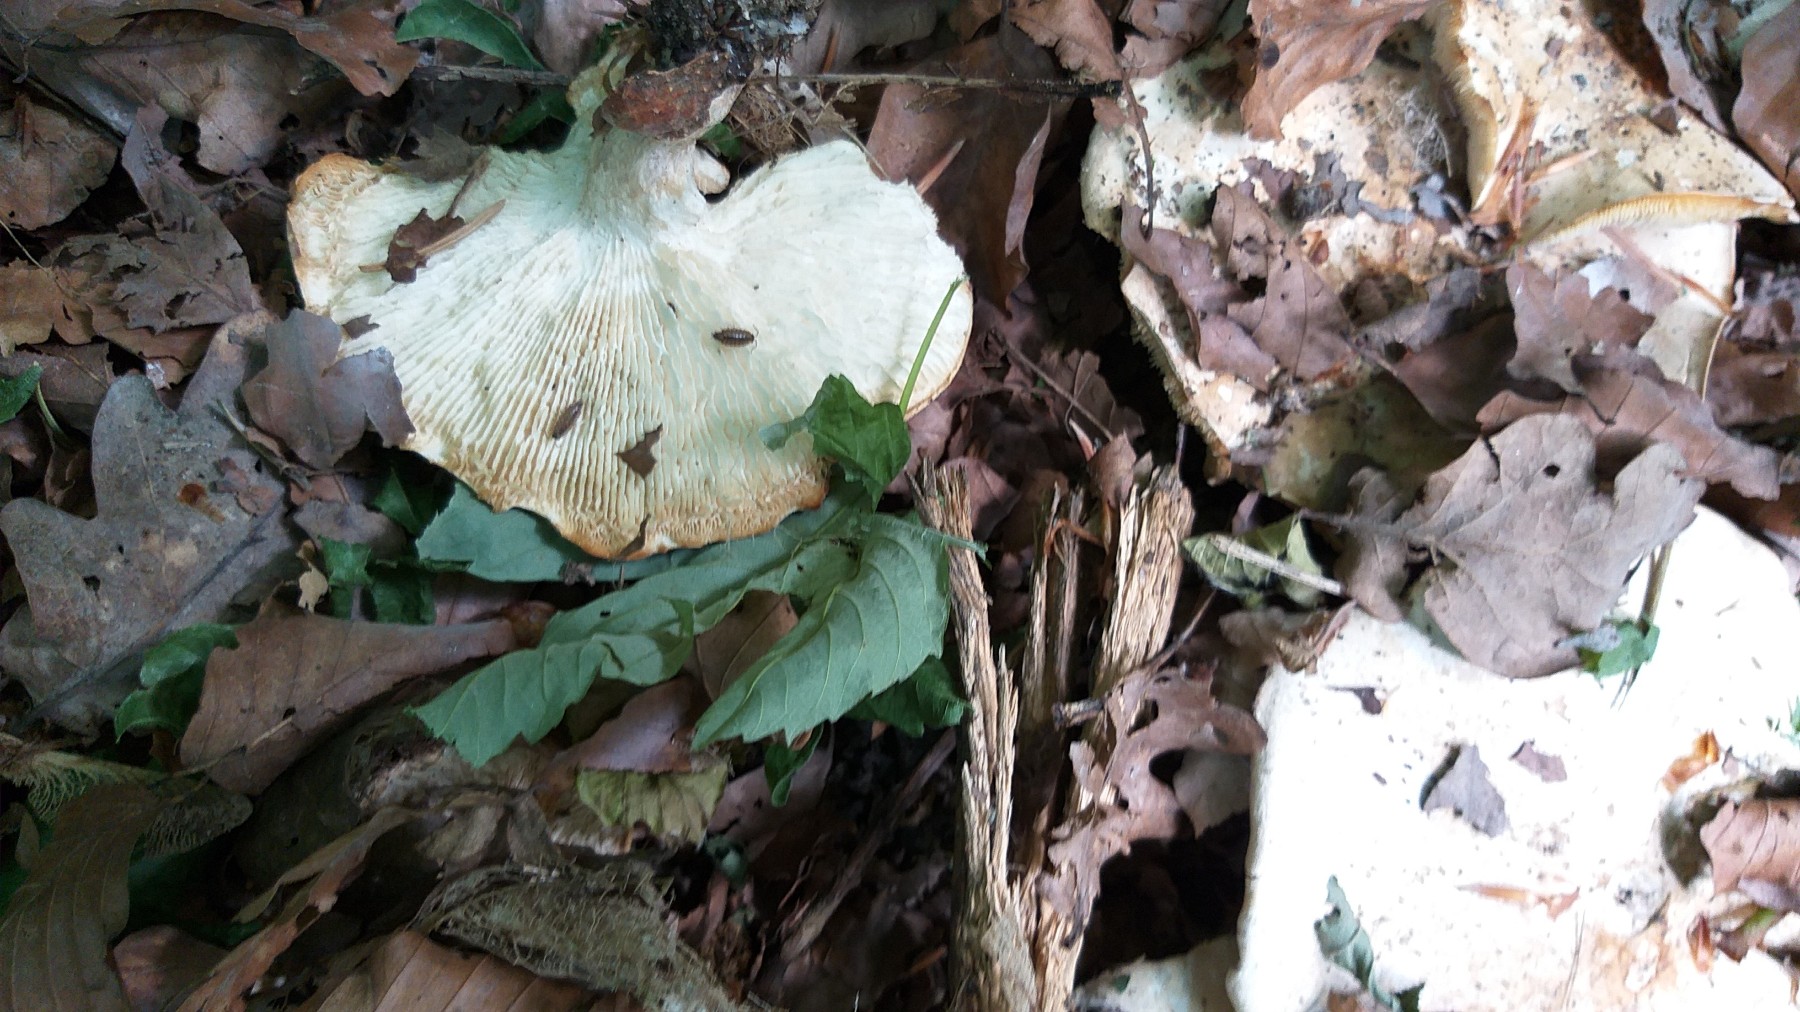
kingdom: Fungi
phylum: Basidiomycota
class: Agaricomycetes
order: Agaricales
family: Lyophyllaceae
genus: Calocybe
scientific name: Calocybe gambosa
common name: vårmusseron
